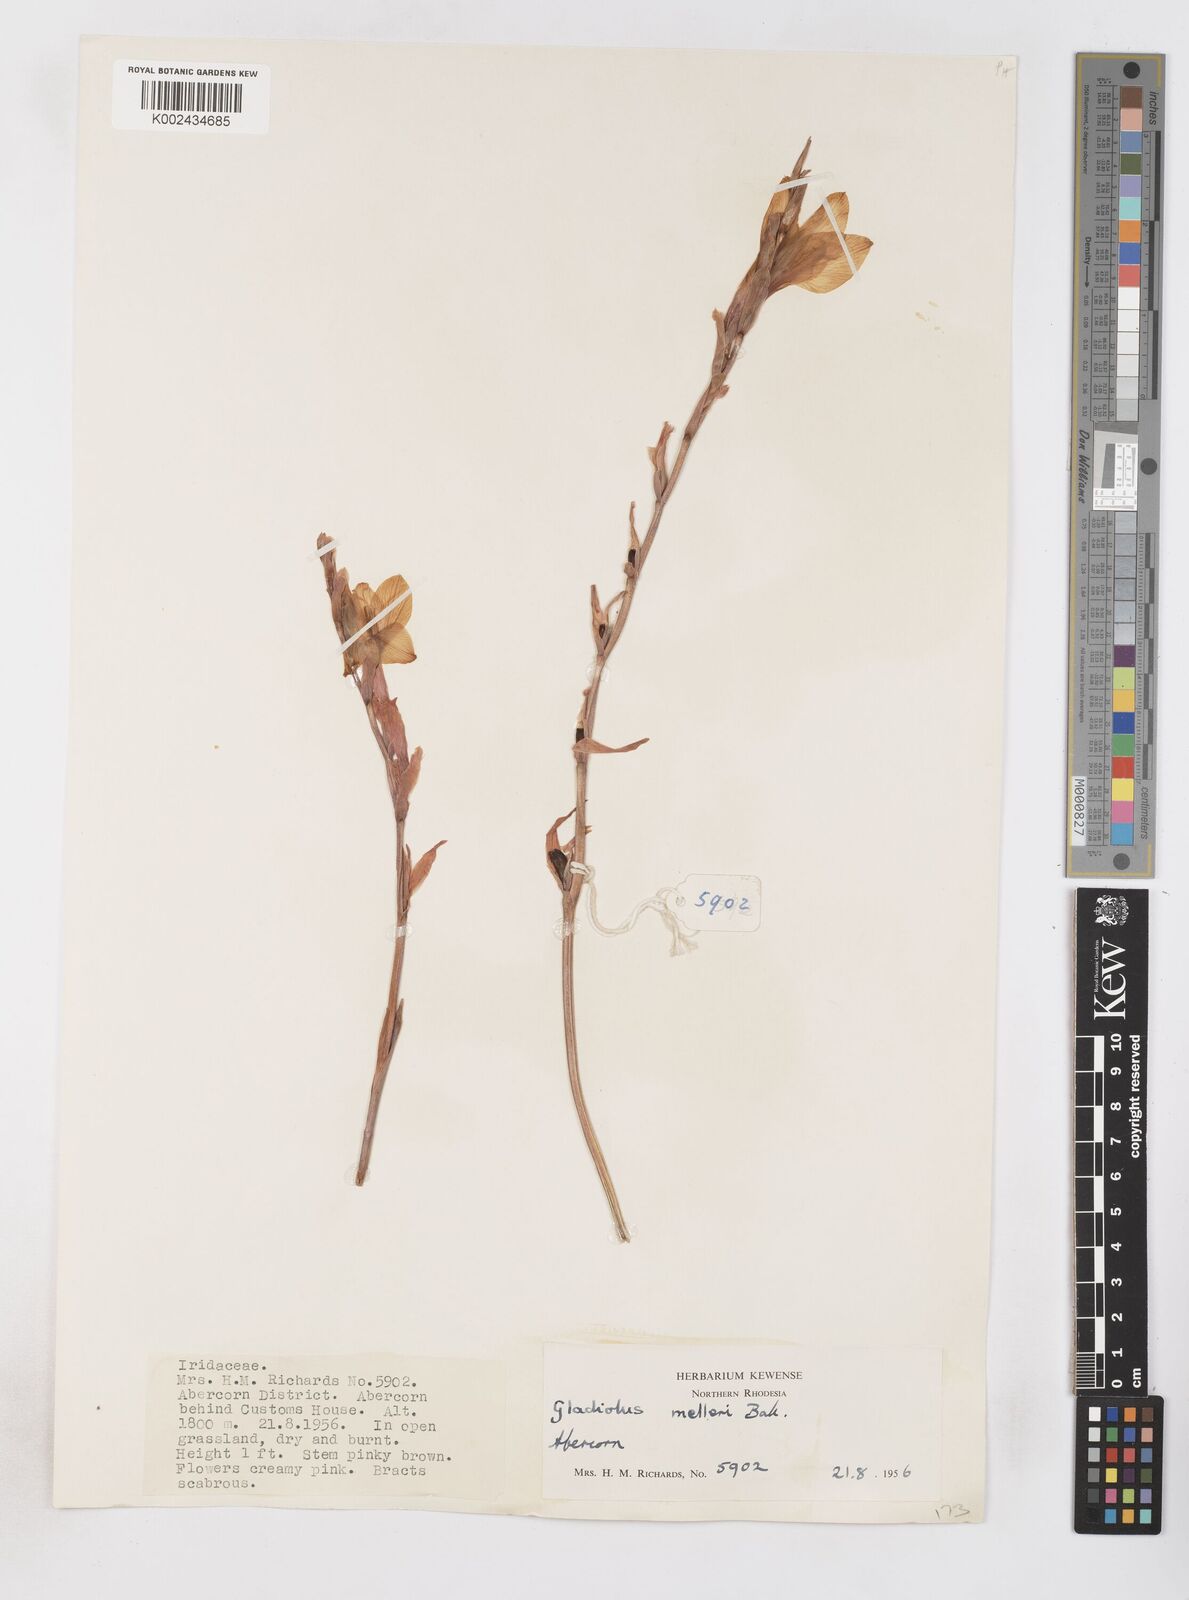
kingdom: Plantae
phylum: Tracheophyta
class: Liliopsida
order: Asparagales
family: Iridaceae
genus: Gladiolus
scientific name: Gladiolus melleri
